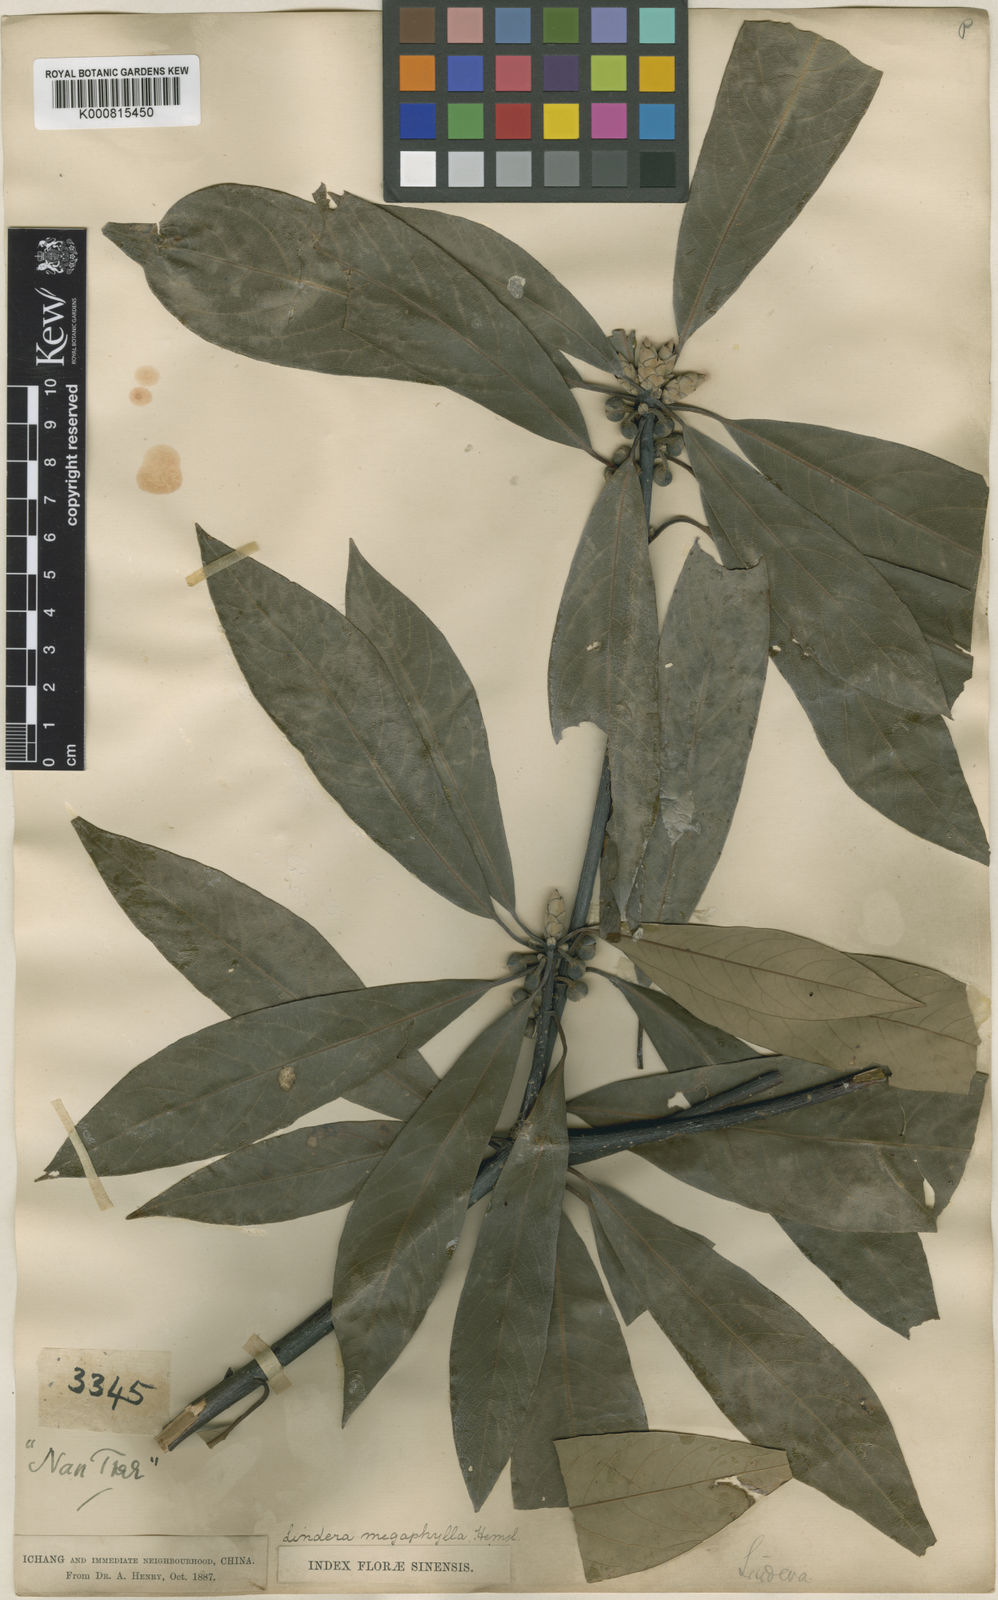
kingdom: Plantae
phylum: Tracheophyta
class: Magnoliopsida
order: Laurales
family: Lauraceae
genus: Lindera
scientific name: Lindera megaphylla
